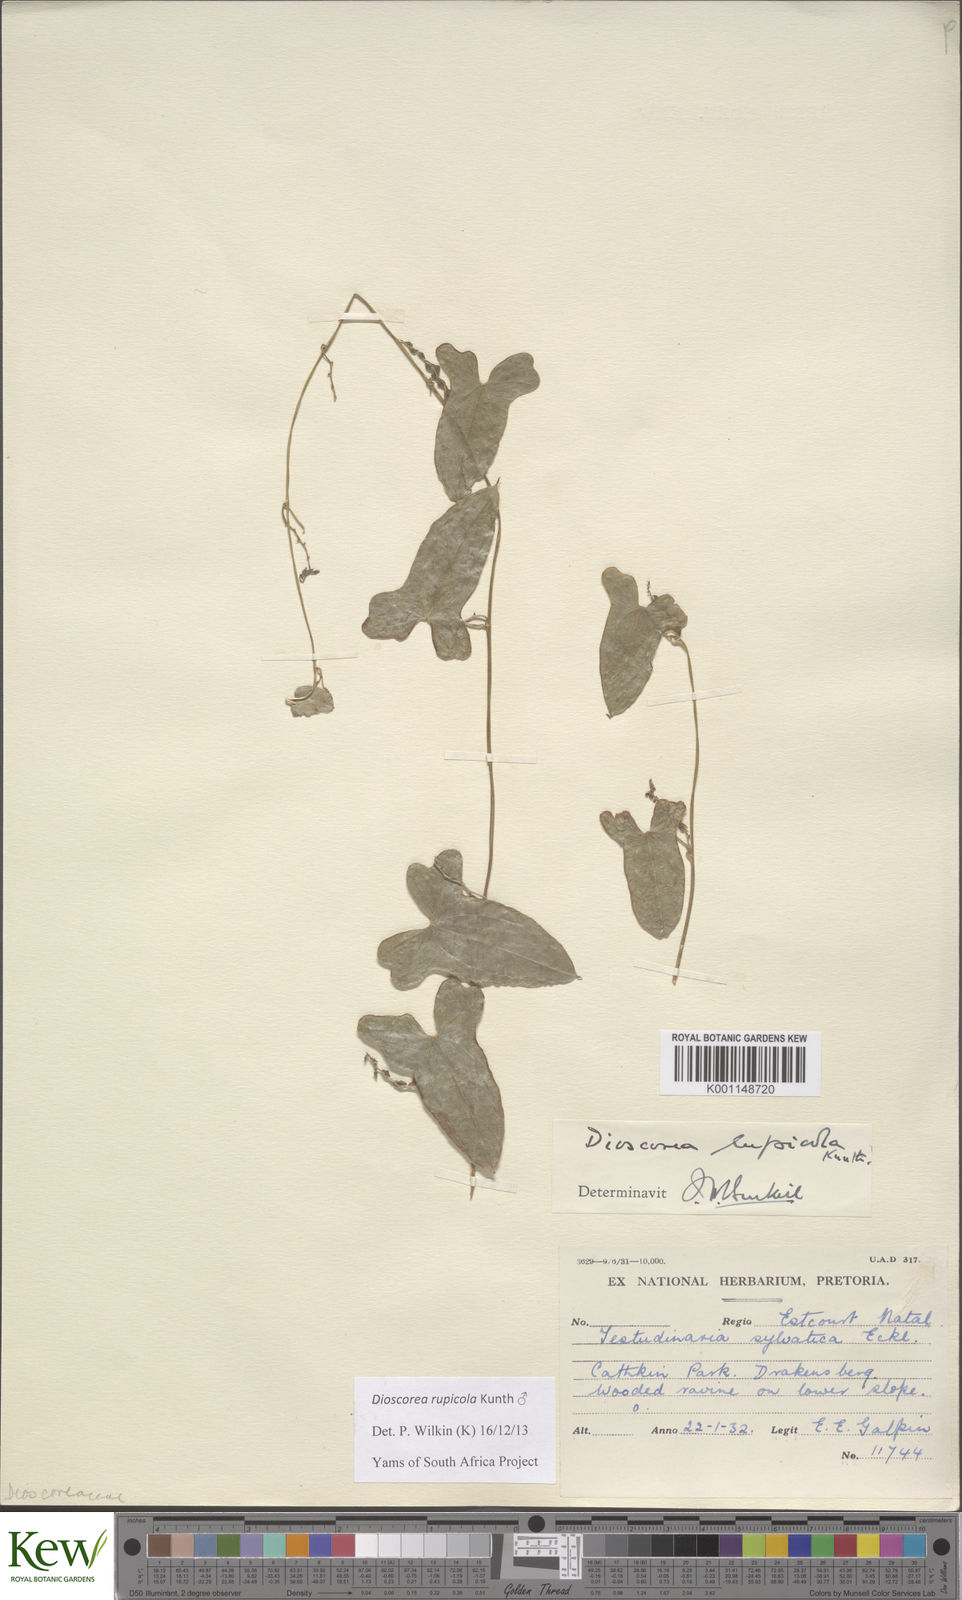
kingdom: Plantae
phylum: Tracheophyta
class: Liliopsida
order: Dioscoreales
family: Dioscoreaceae
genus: Dioscorea
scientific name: Dioscorea rupicola
